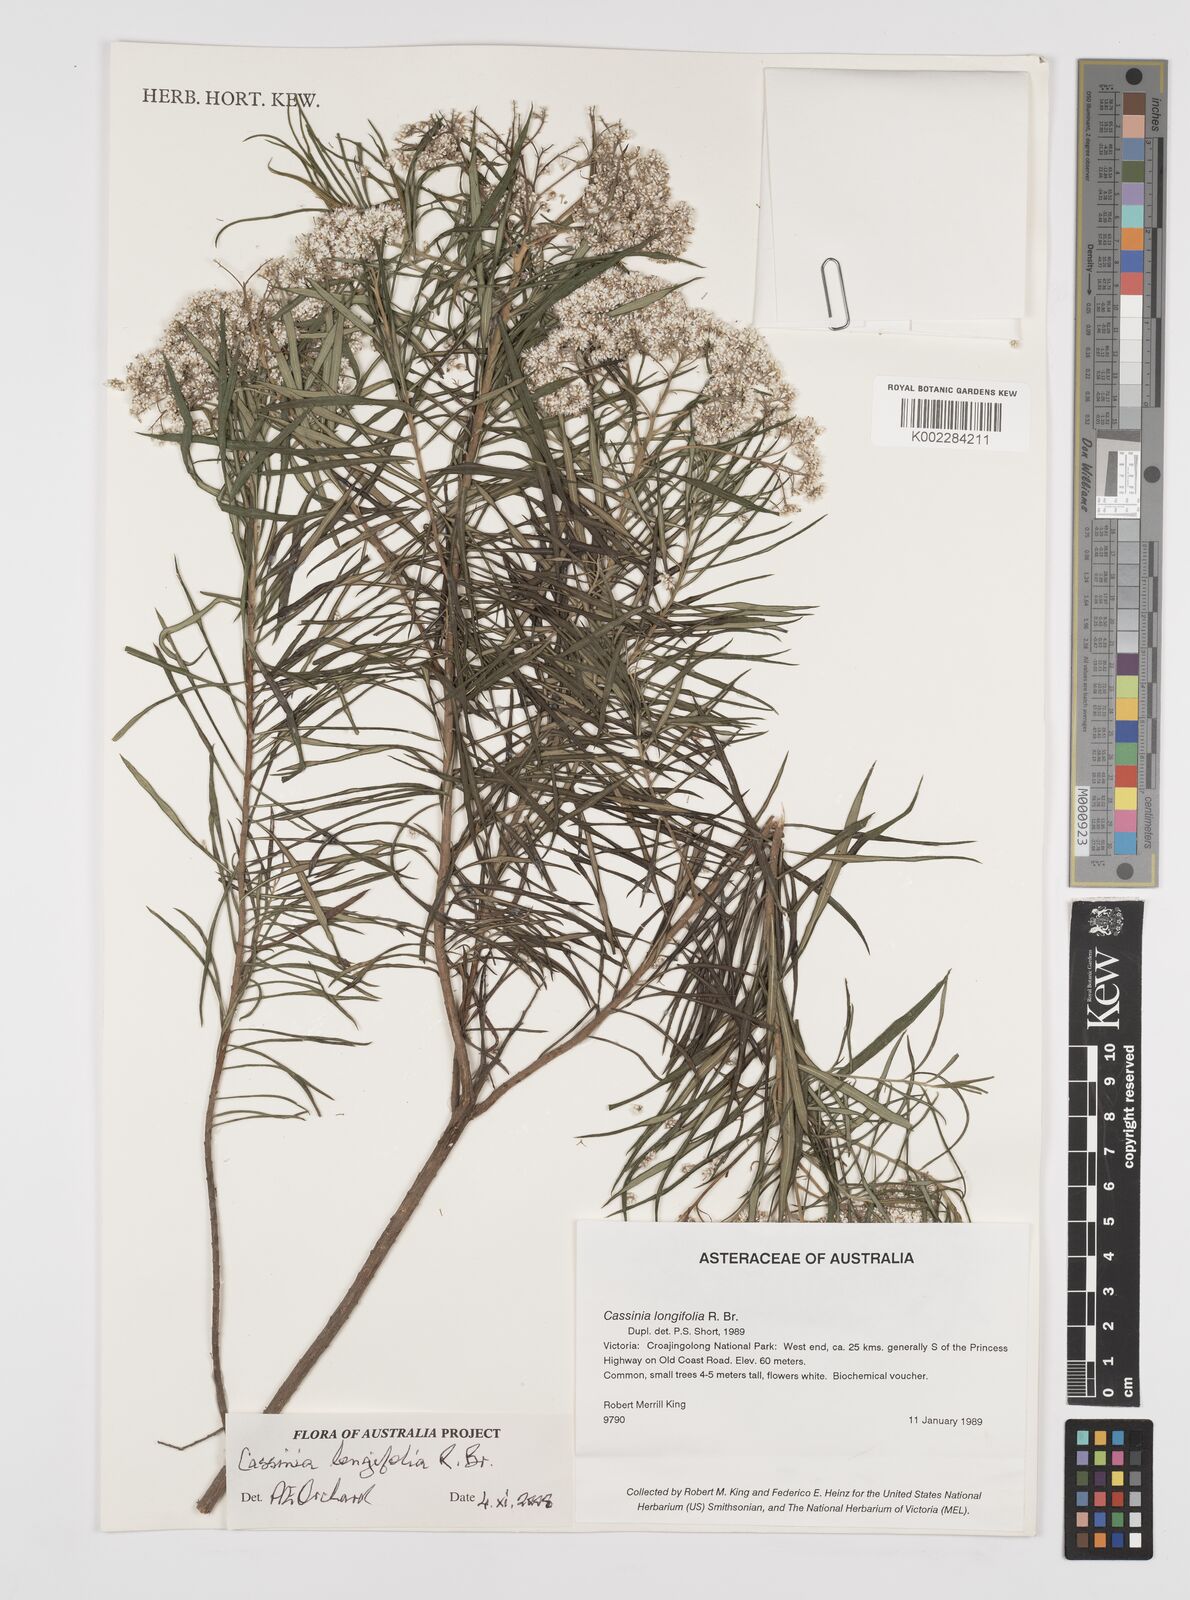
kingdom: Plantae
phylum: Tracheophyta
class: Magnoliopsida
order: Asterales
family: Asteraceae
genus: Cassinia
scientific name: Cassinia longifolia
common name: Longleaf-dogwood
